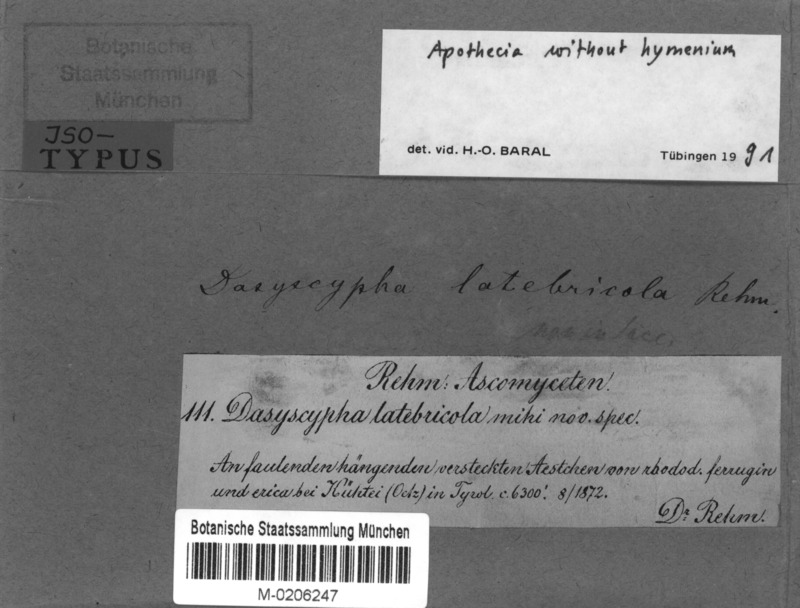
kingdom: Fungi
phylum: Ascomycota
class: Leotiomycetes
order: Helotiales
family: Lachnaceae
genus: Lachnum
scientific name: Lachnum latebricola
